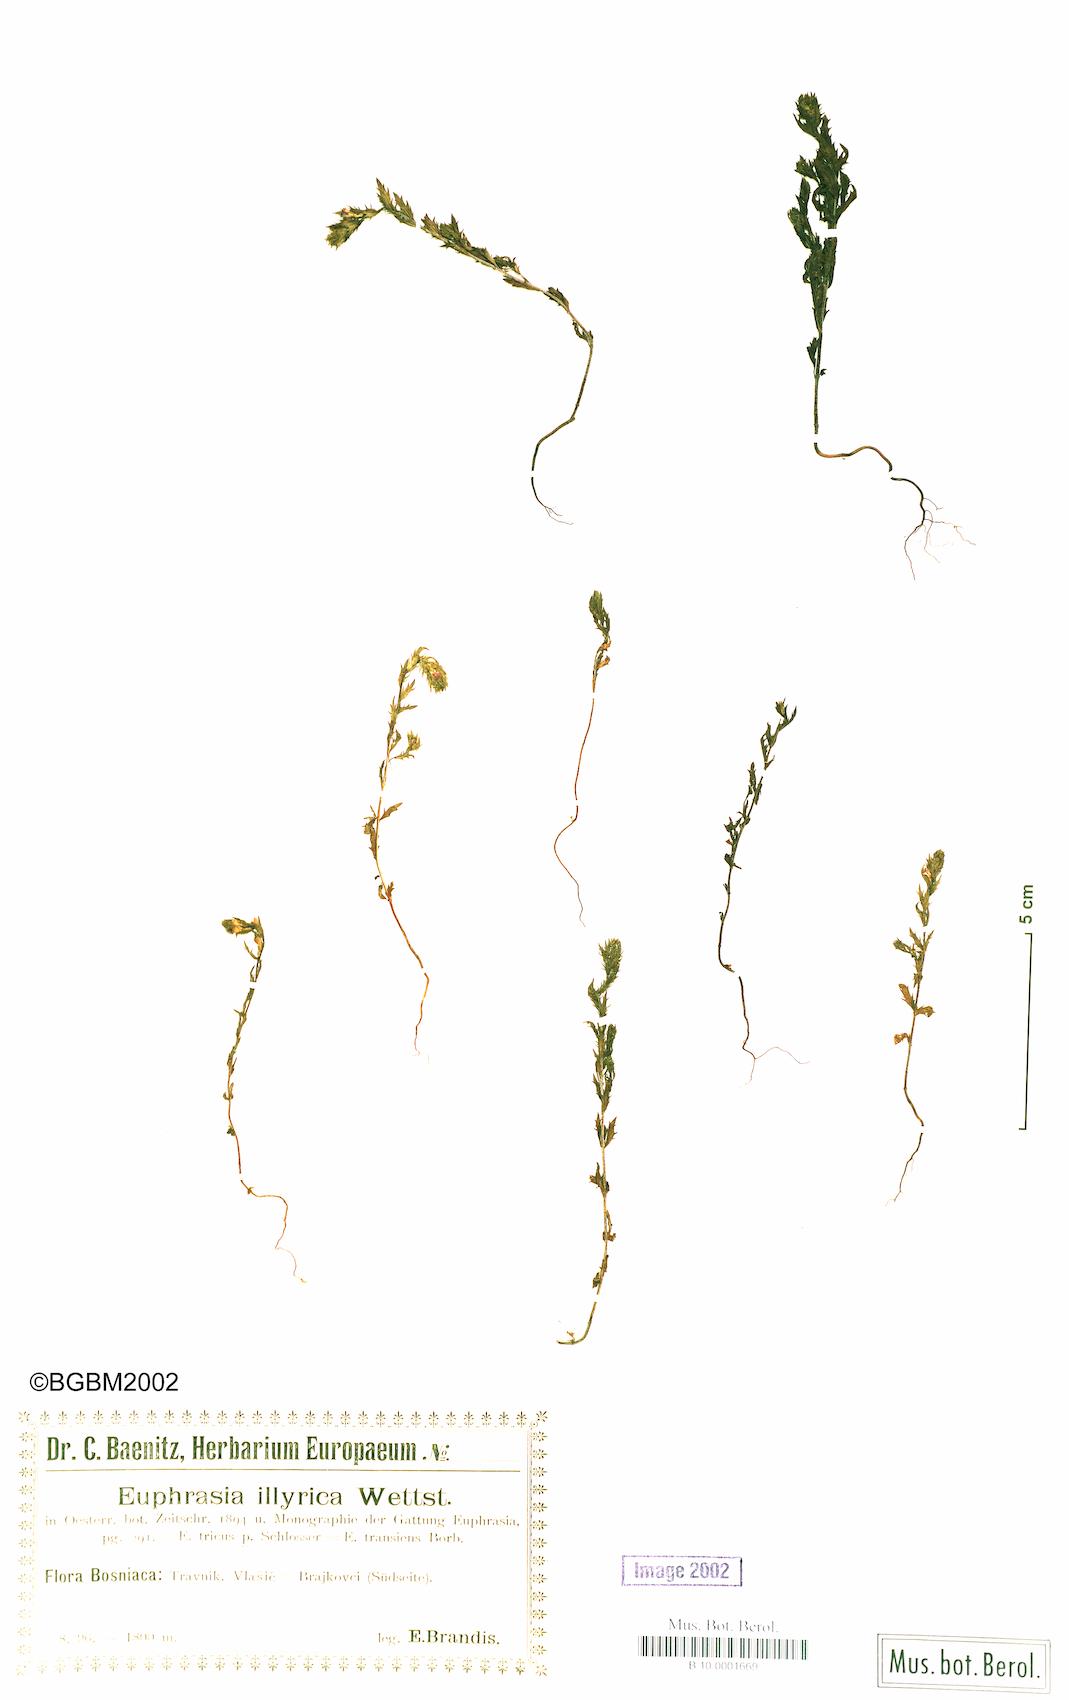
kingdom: Plantae
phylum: Tracheophyta
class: Magnoliopsida
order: Lamiales
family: Orobanchaceae
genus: Euphrasia
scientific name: Euphrasia illyrica
